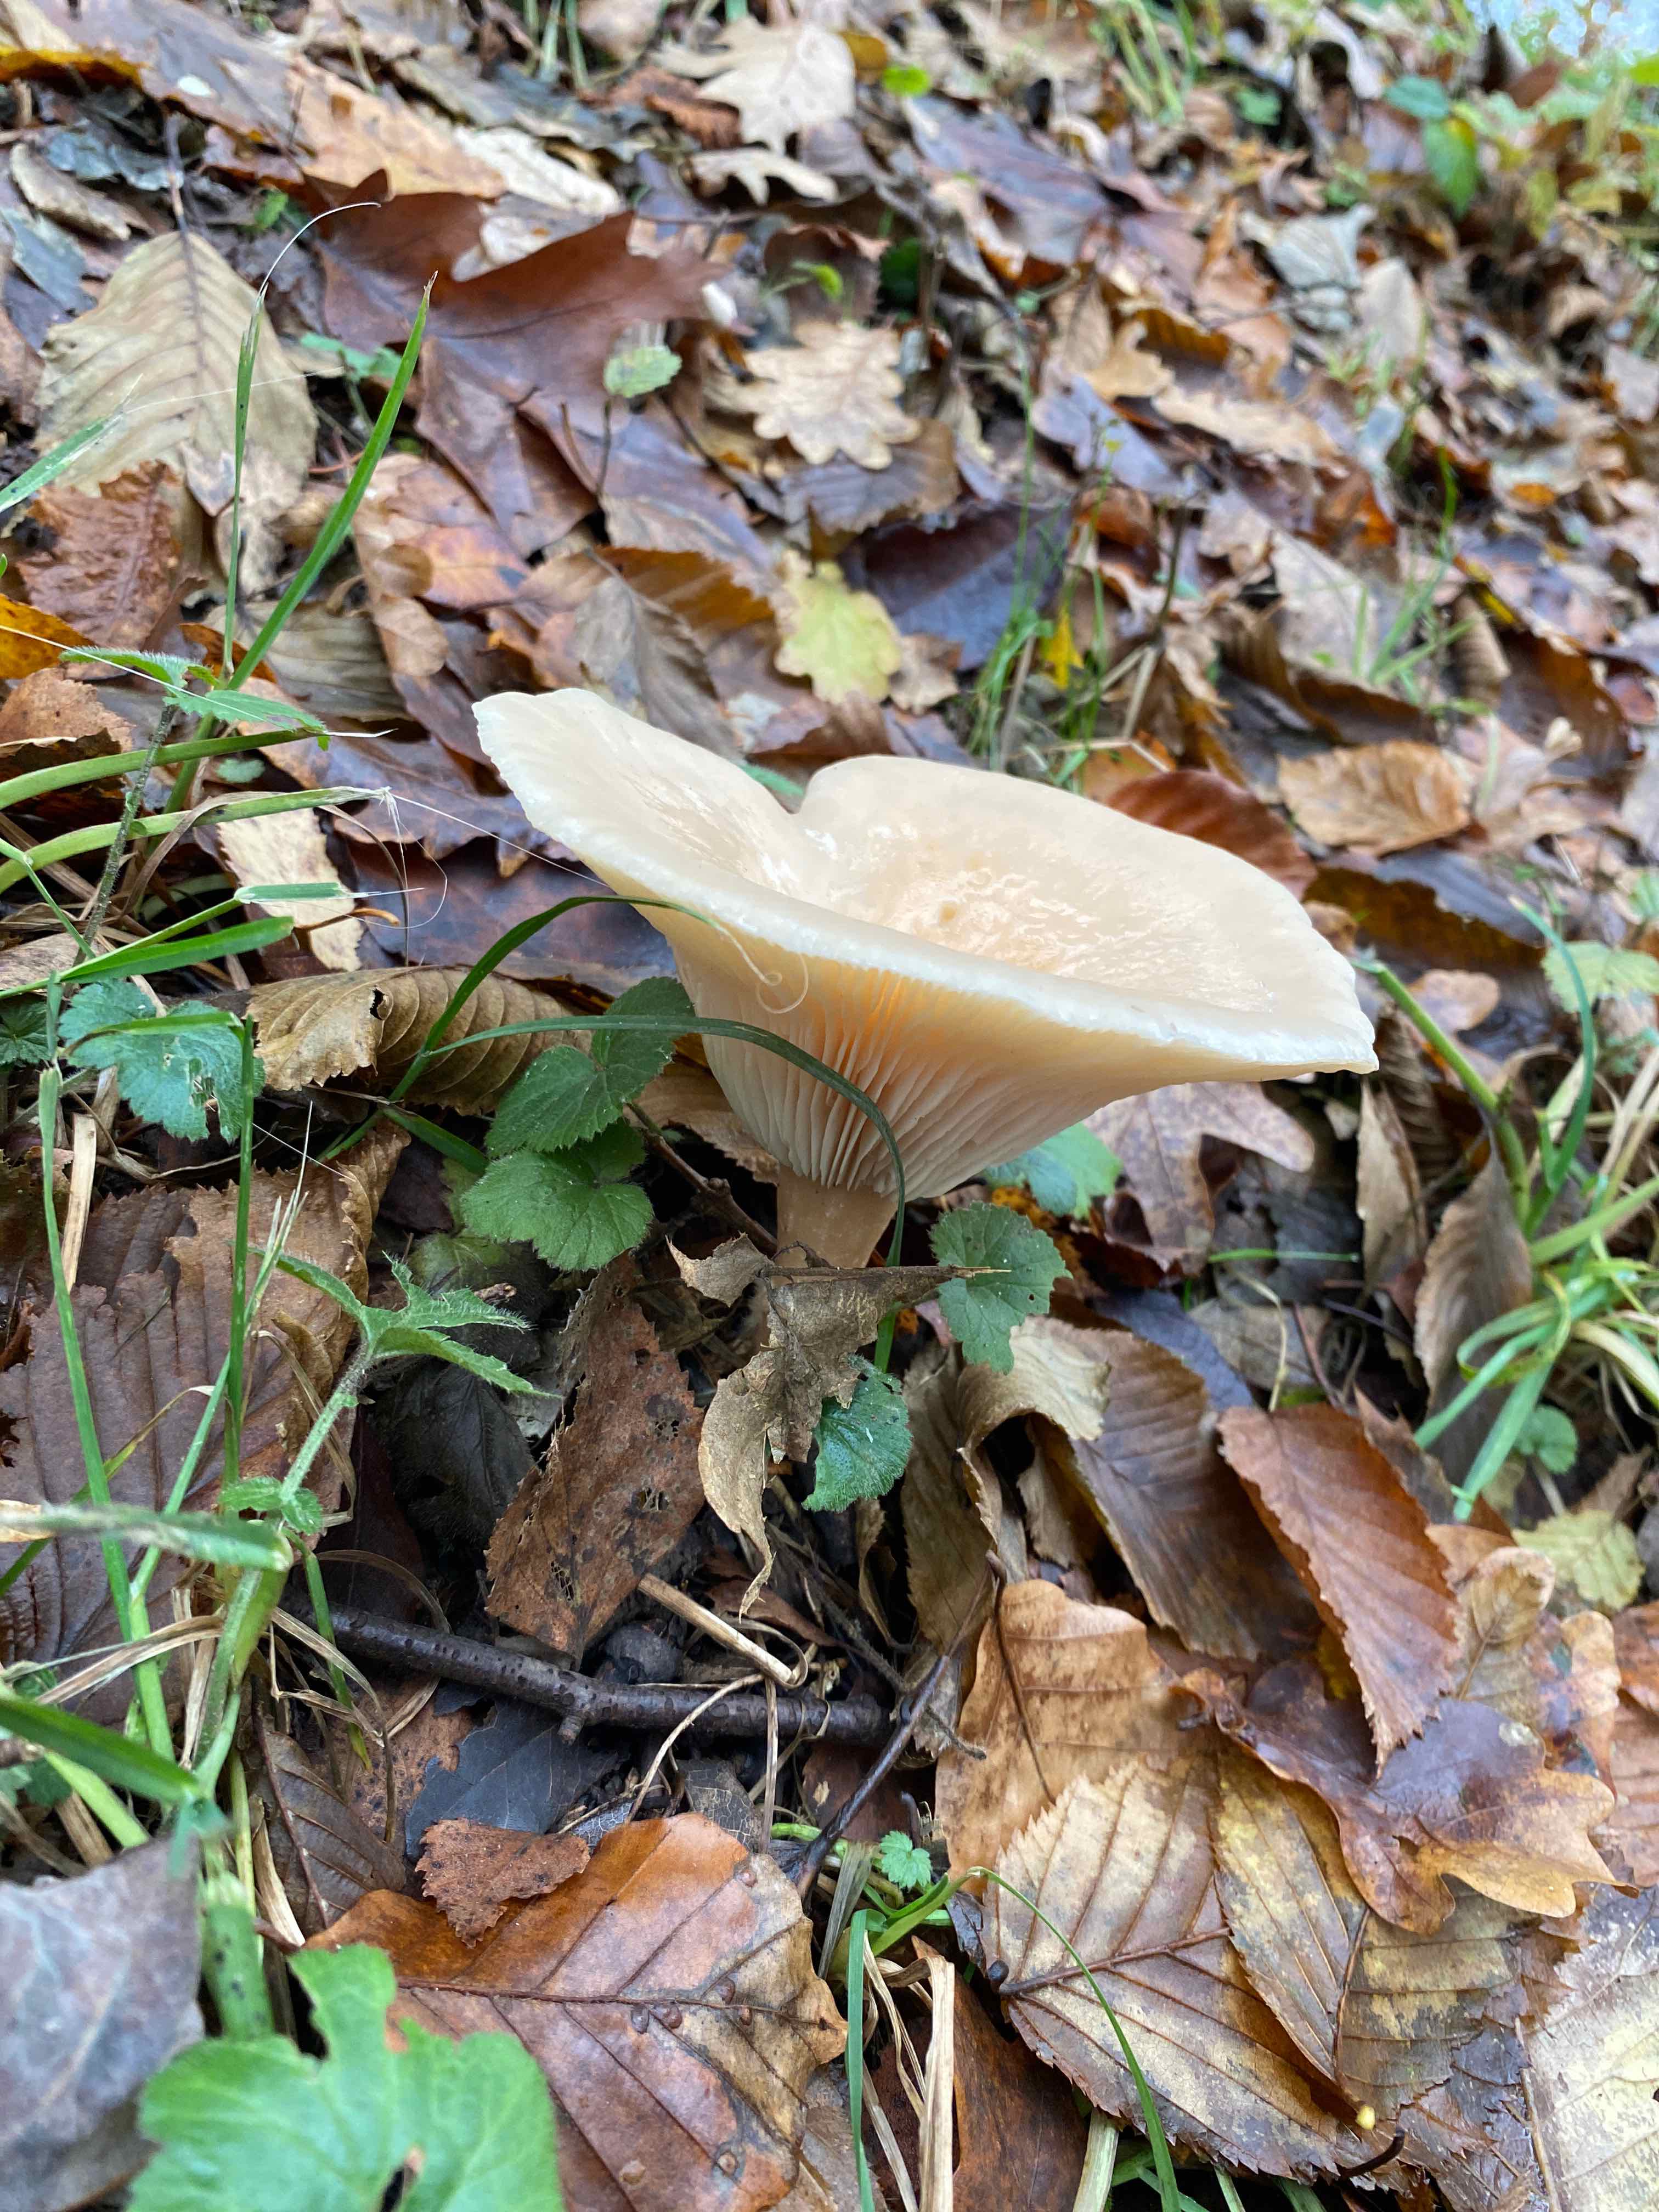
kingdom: Fungi
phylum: Basidiomycota
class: Agaricomycetes
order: Agaricales
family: Tricholomataceae
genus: Infundibulicybe
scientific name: Infundibulicybe geotropa
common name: stor tragthat
